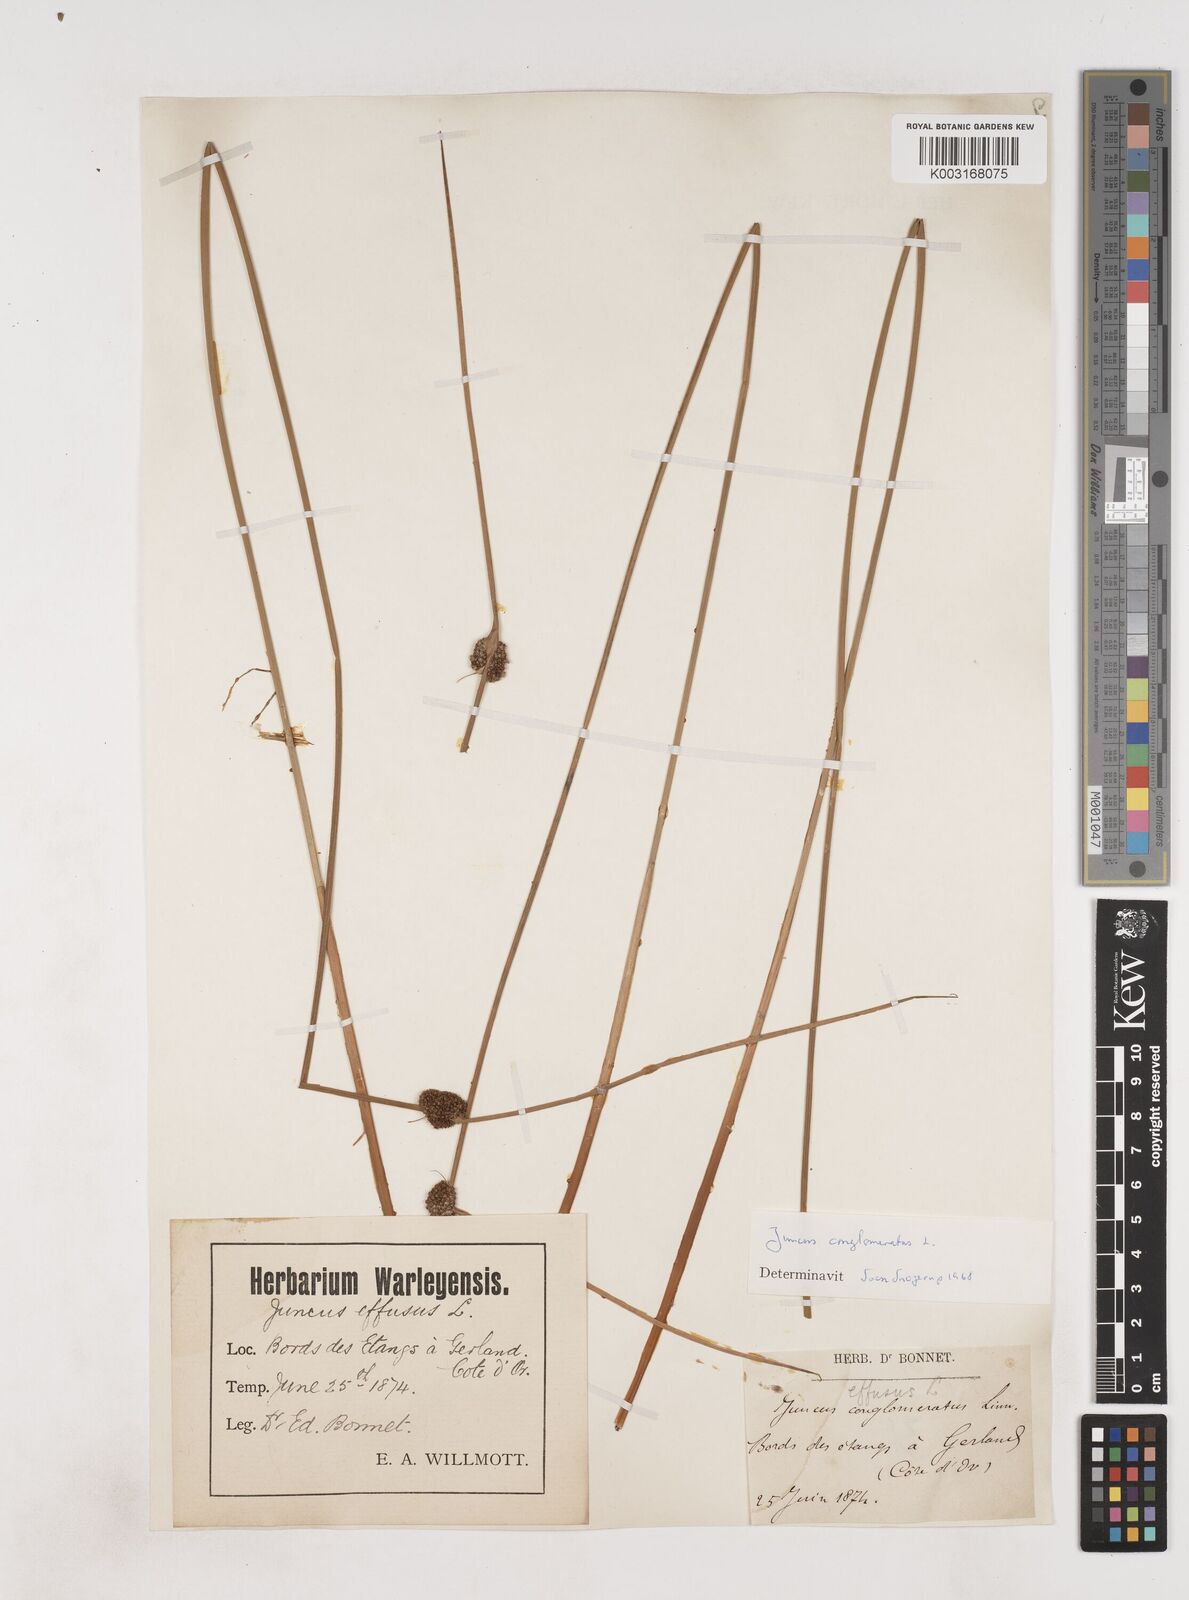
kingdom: Plantae
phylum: Tracheophyta
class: Liliopsida
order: Poales
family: Juncaceae
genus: Juncus
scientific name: Juncus conglomeratus
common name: Compact rush
